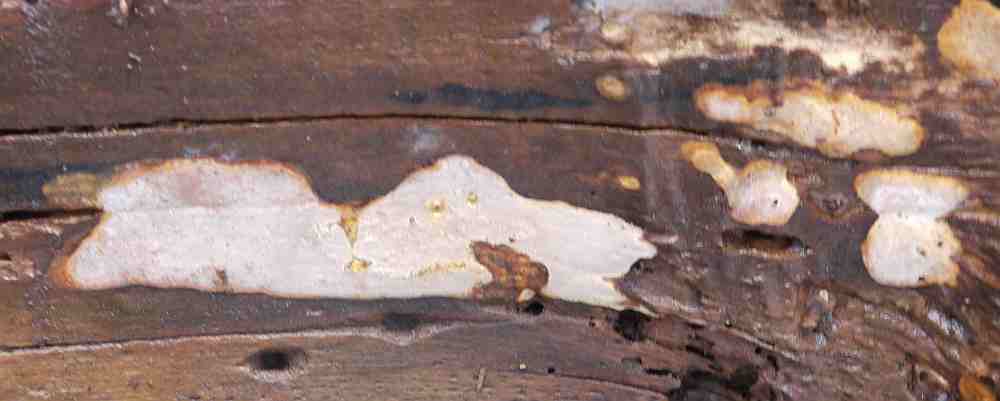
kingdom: Fungi
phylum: Basidiomycota
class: Agaricomycetes
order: Russulales
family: Peniophoraceae
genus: Scytinostroma
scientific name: Scytinostroma hemidichophyticum
